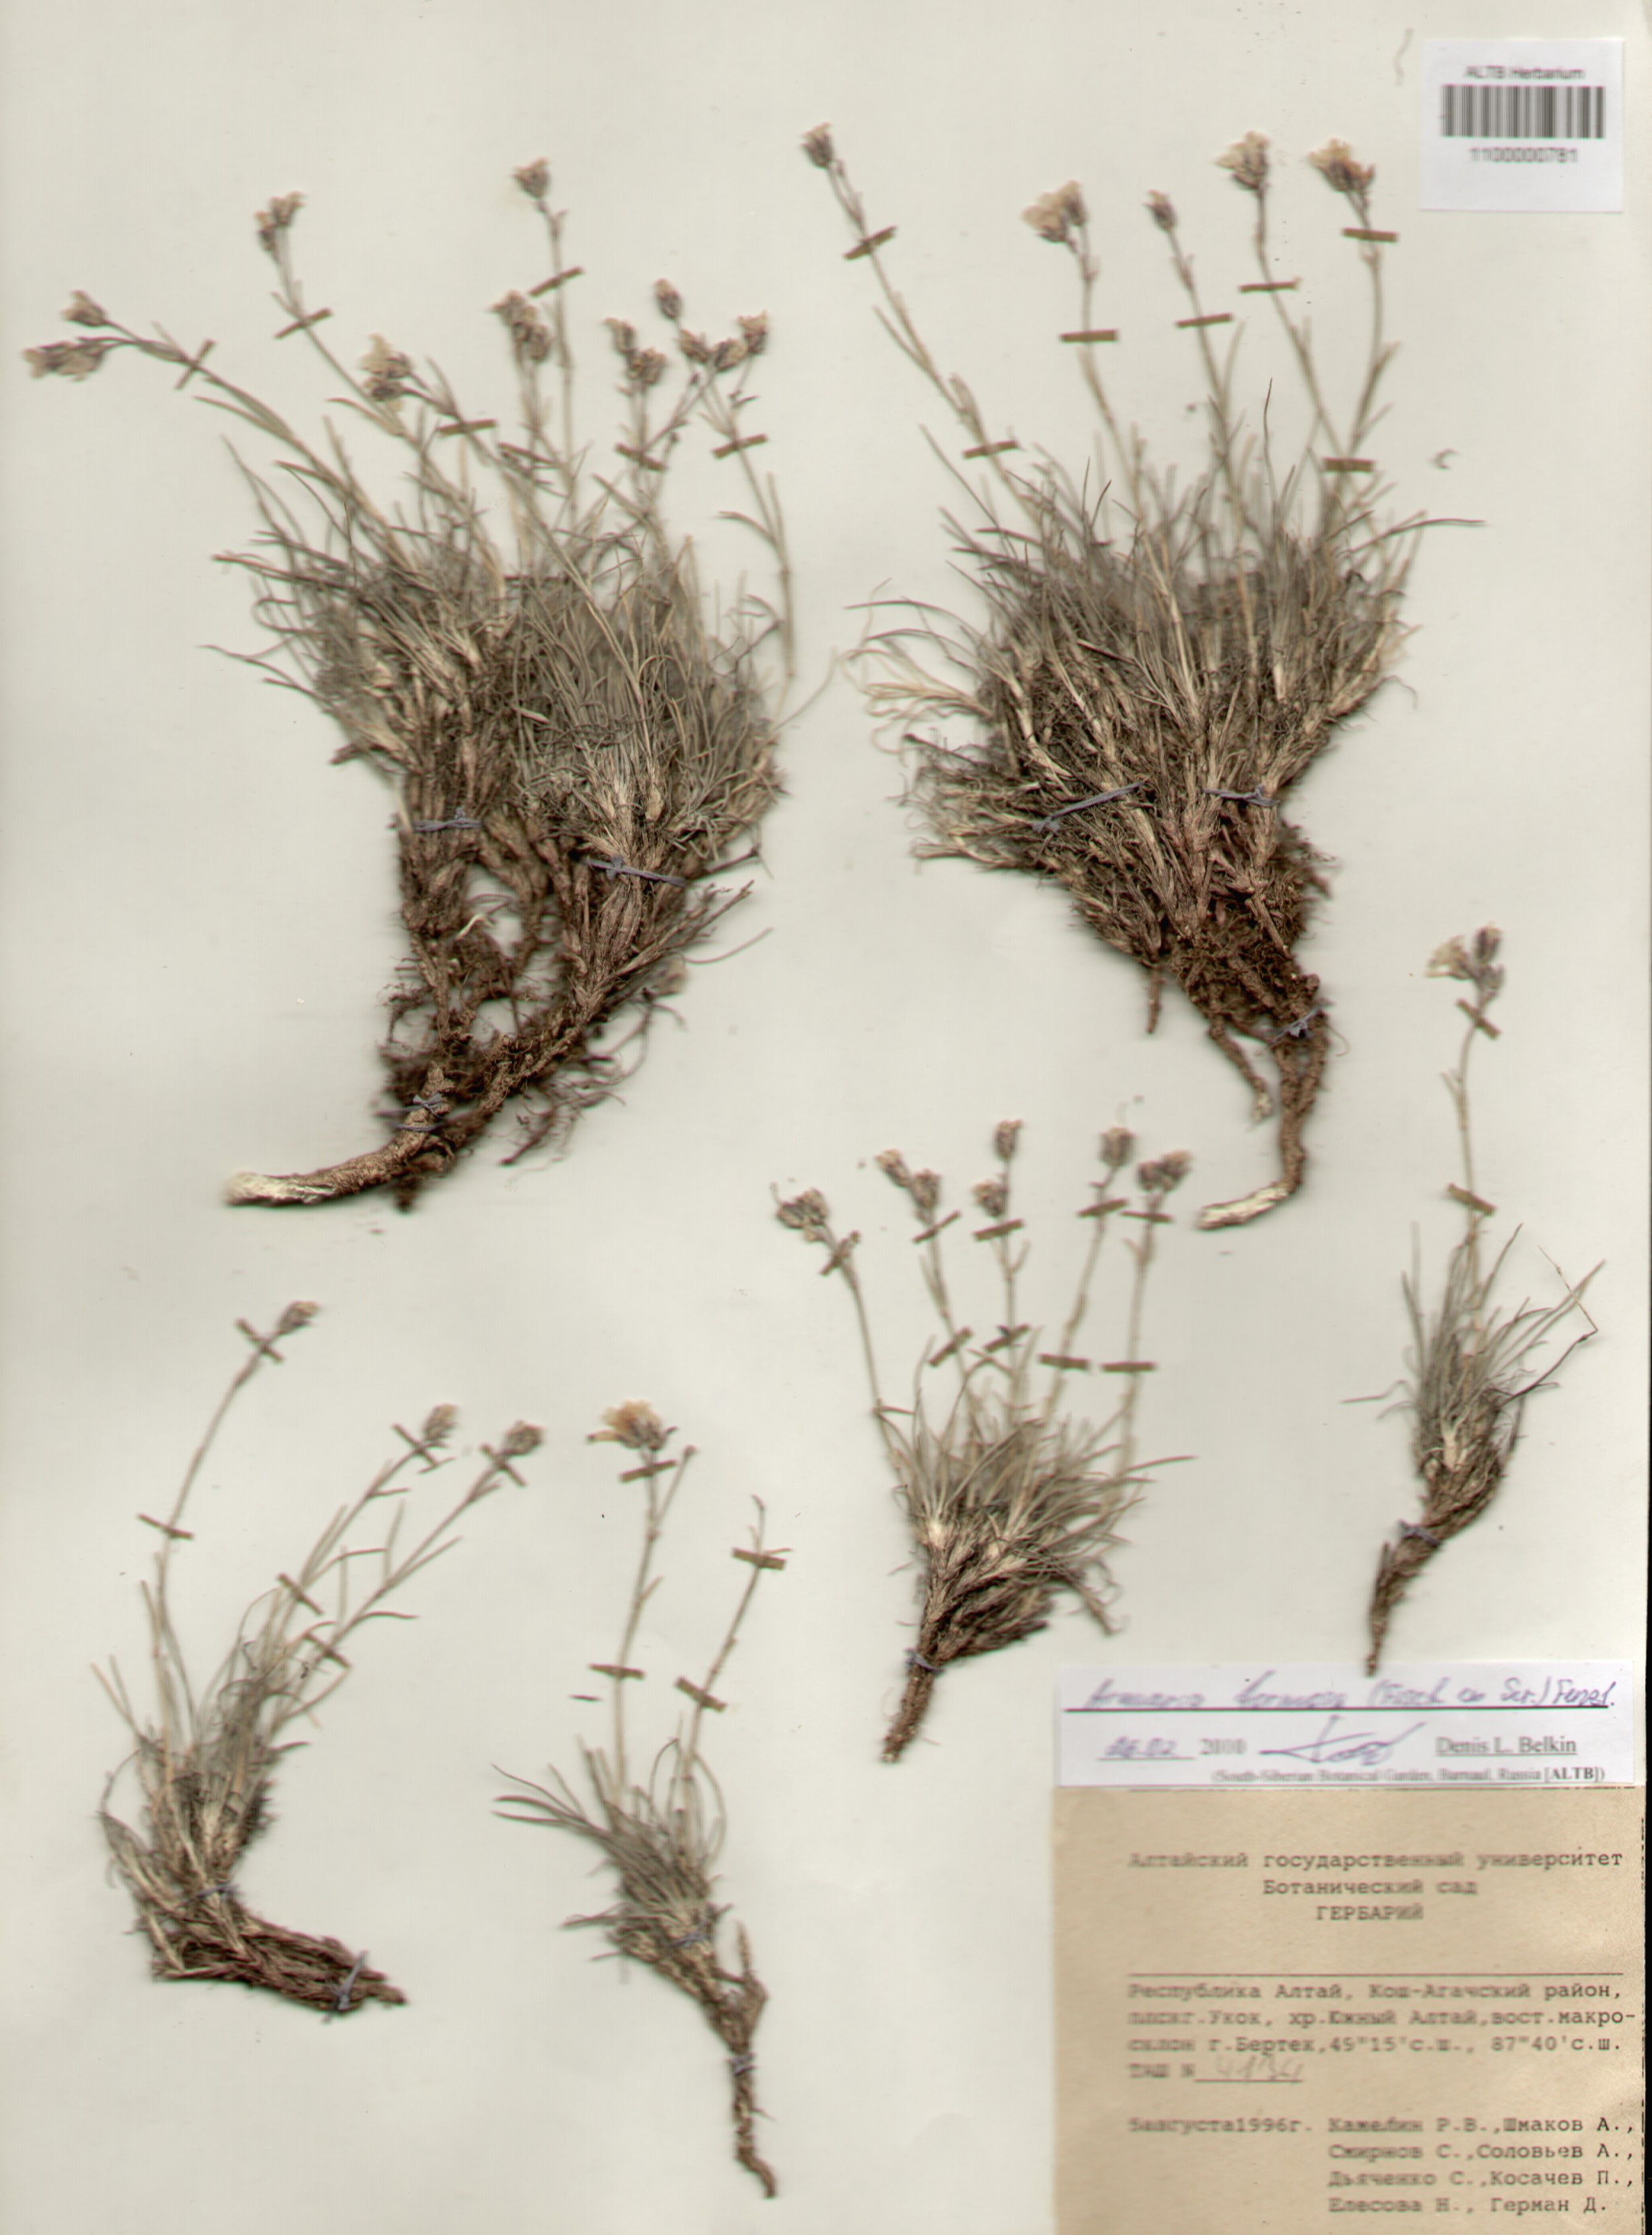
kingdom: Plantae
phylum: Tracheophyta
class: Magnoliopsida
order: Caryophyllales
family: Caryophyllaceae
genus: Eremogone
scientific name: Eremogone formosa
